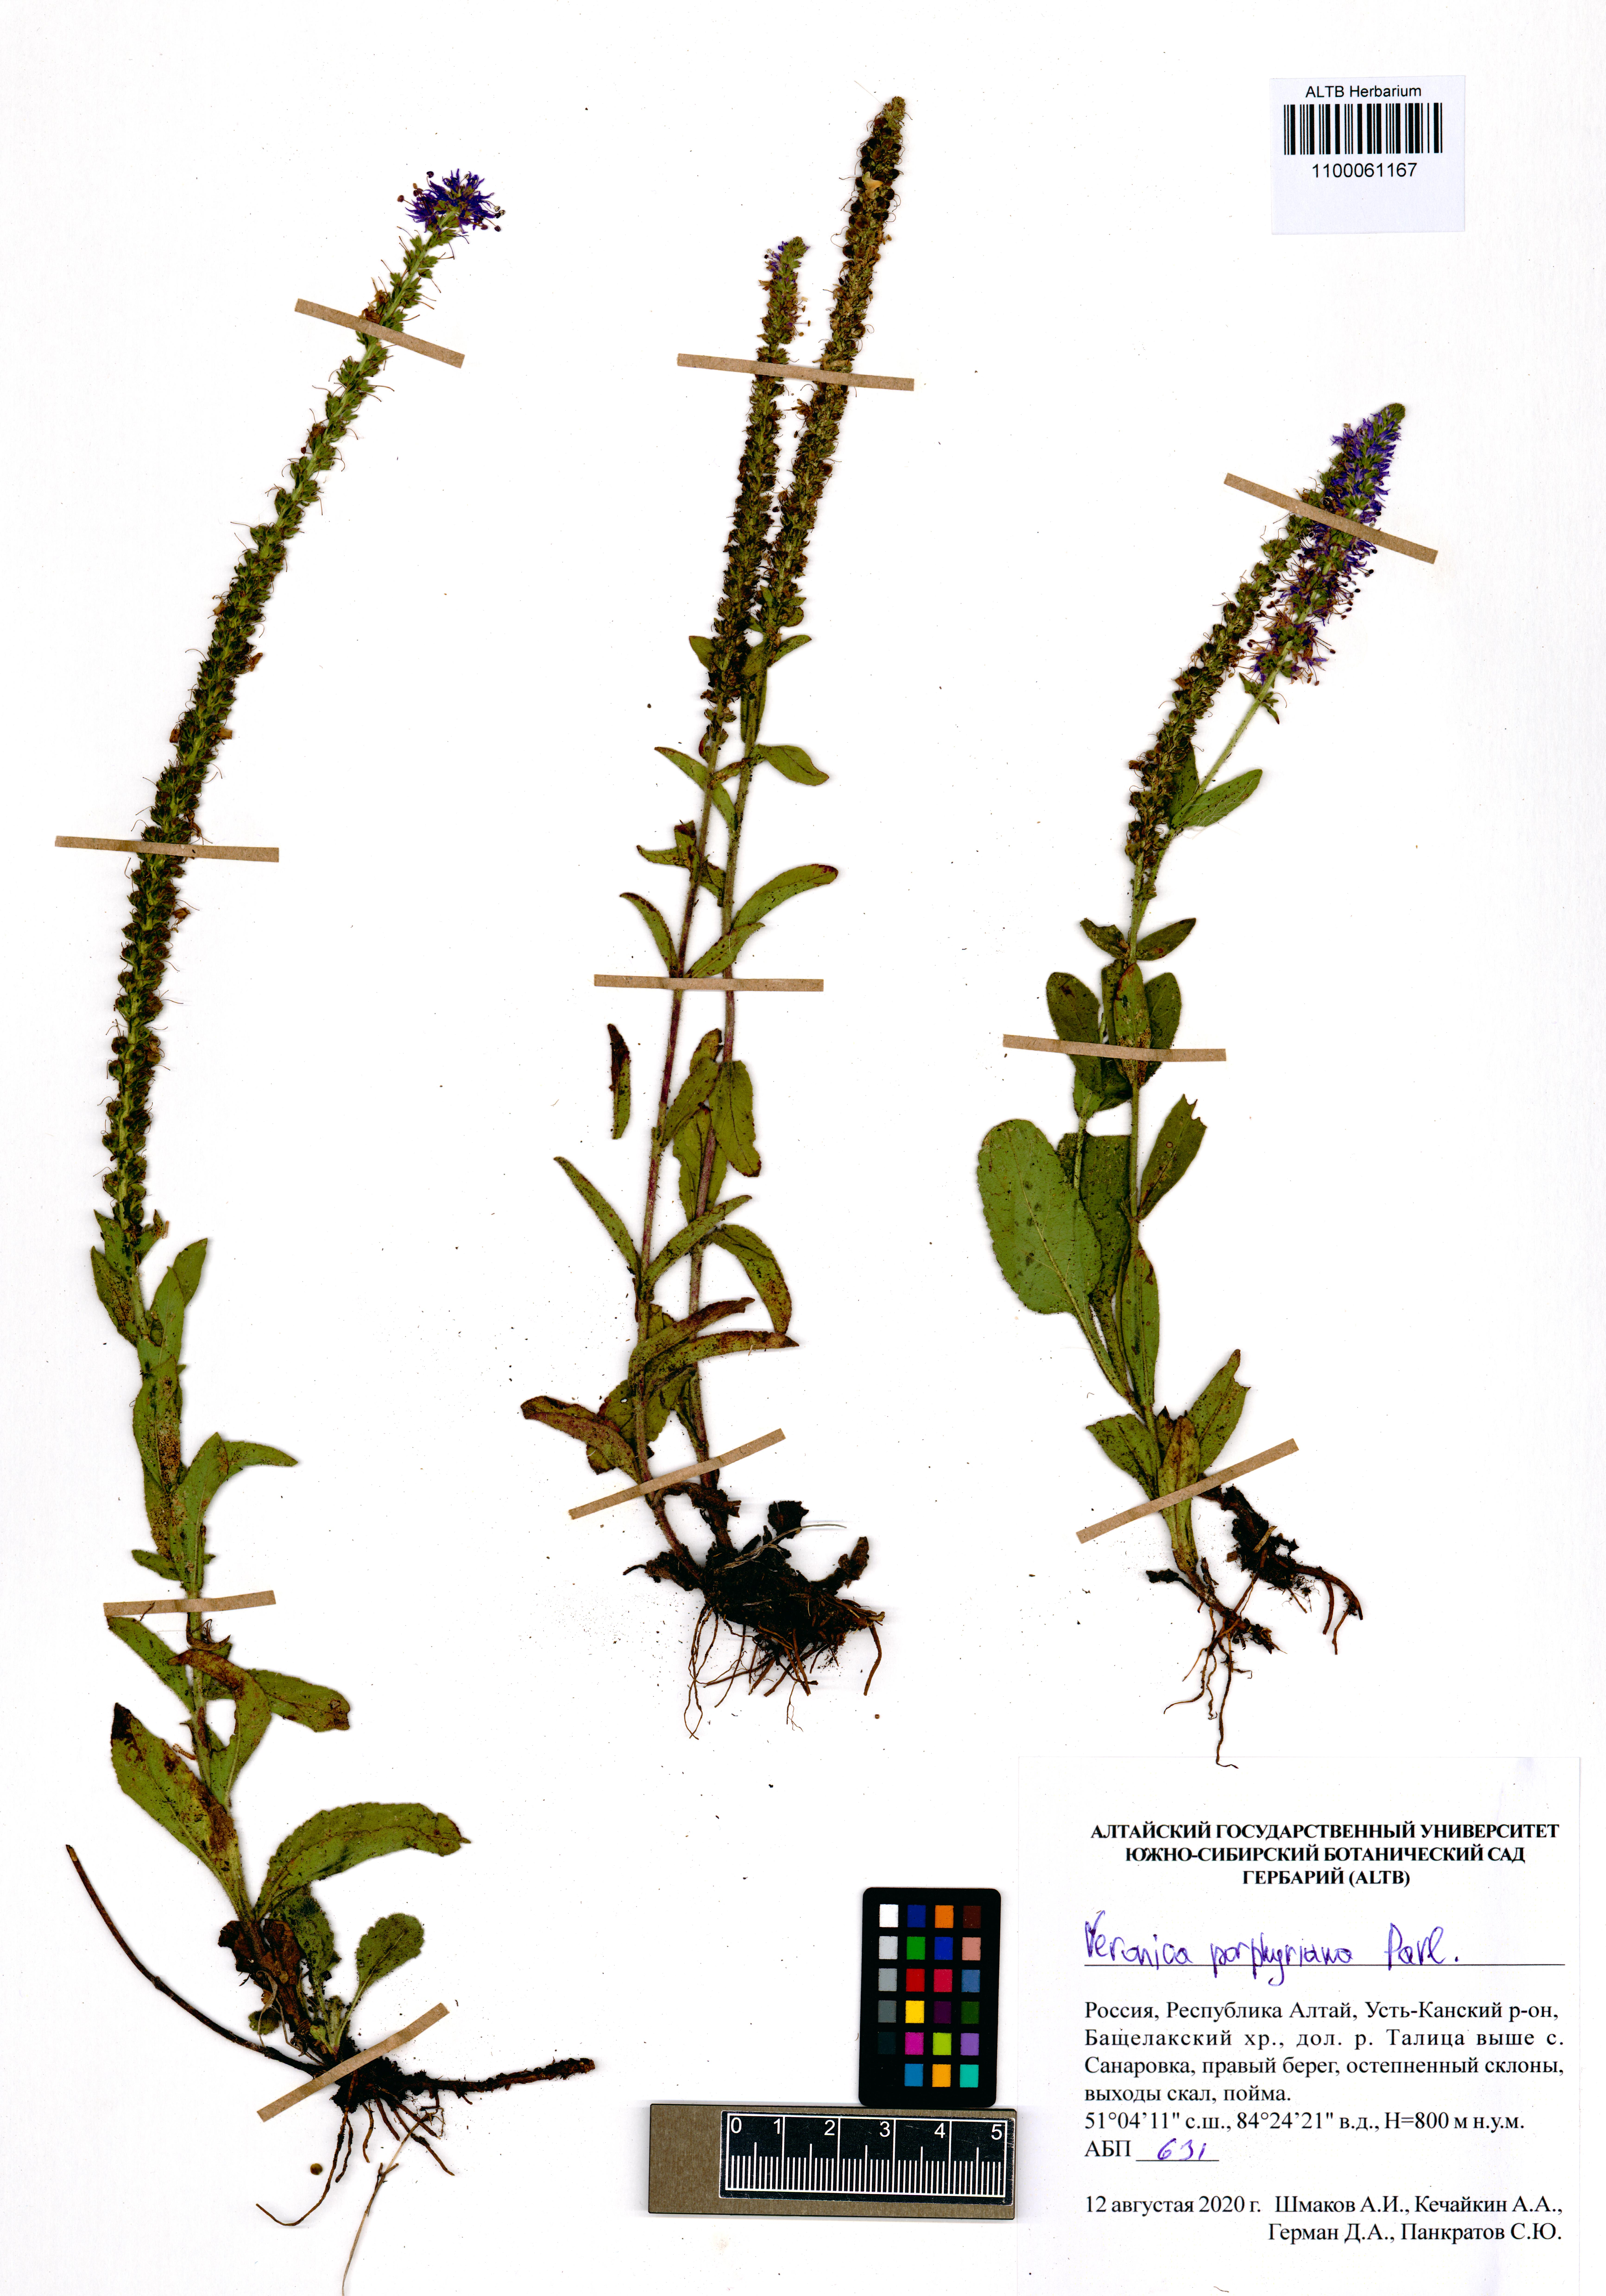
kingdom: Plantae
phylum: Tracheophyta
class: Magnoliopsida
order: Lamiales
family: Plantaginaceae
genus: Veronica
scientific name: Veronica porphyriana
